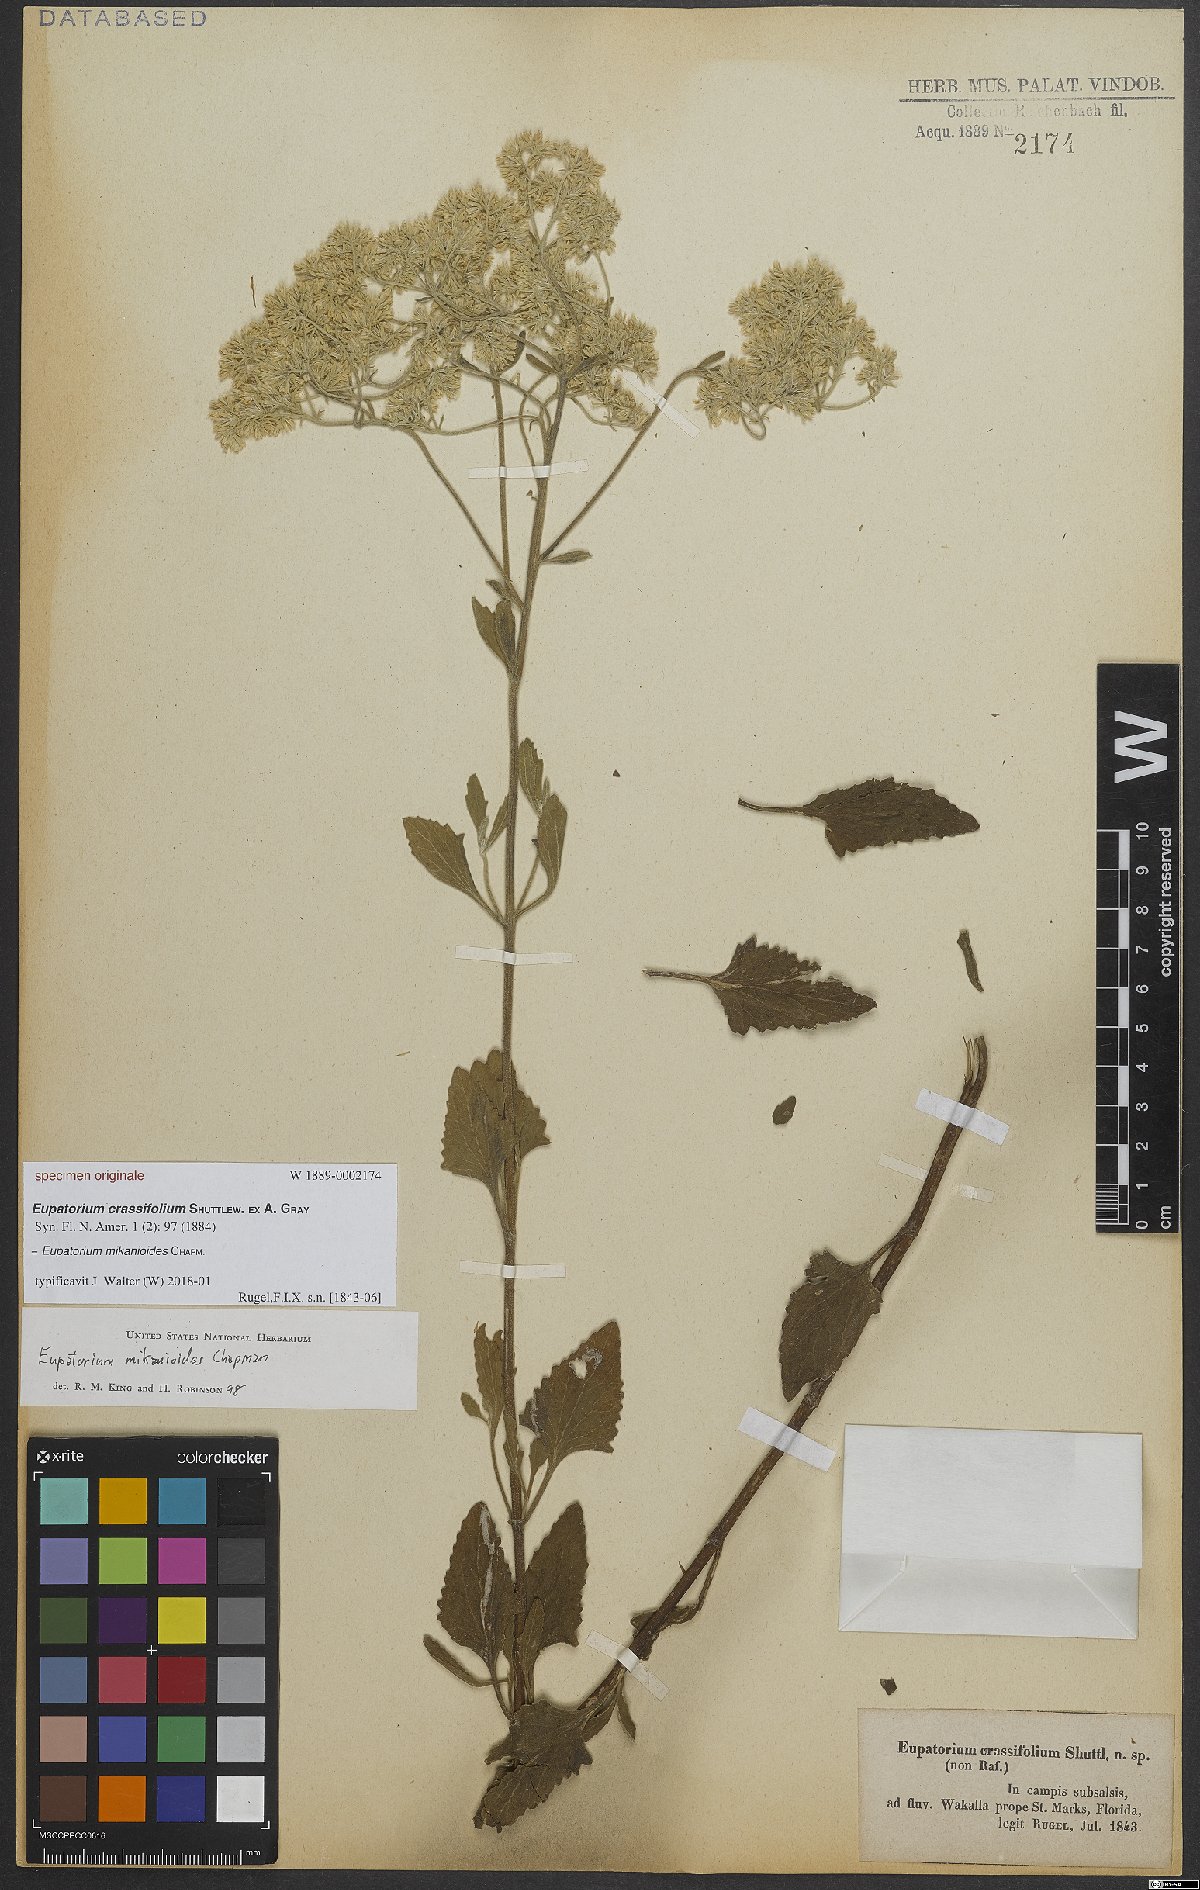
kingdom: Plantae
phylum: Tracheophyta
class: Magnoliopsida
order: Asterales
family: Asteraceae
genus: Eupatorium
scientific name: Eupatorium mikanioides
